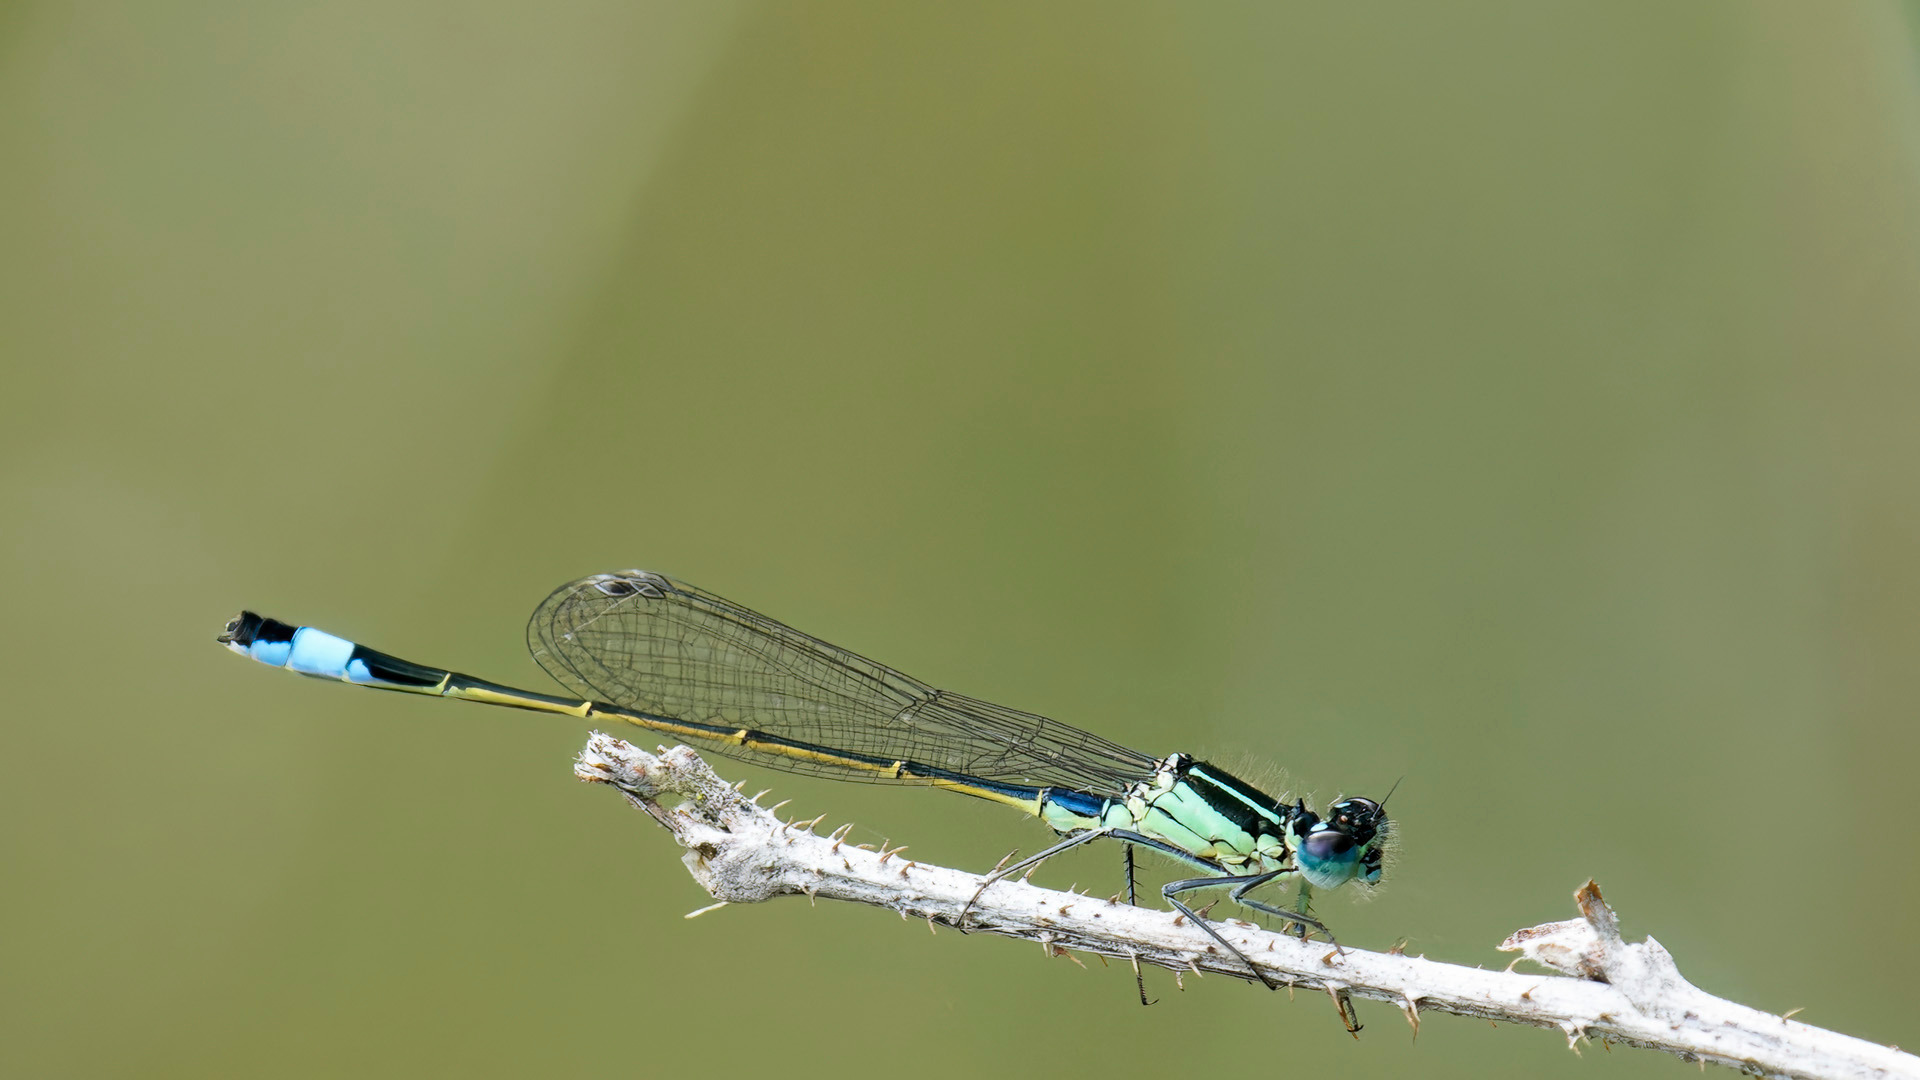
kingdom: Animalia
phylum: Arthropoda
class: Insecta
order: Odonata
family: Coenagrionidae
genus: Ischnura
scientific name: Ischnura elegans
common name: Stor farvevandnymfe
